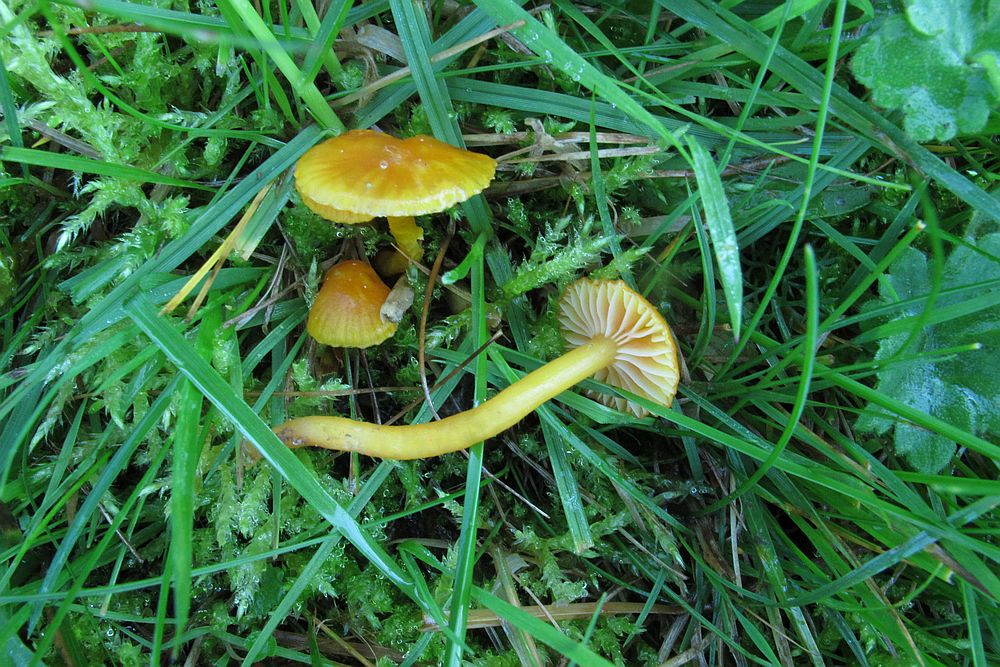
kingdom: Fungi
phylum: Basidiomycota
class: Agaricomycetes
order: Agaricales
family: Hygrophoraceae
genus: Hygrocybe
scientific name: Hygrocybe insipida
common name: liden vokshat
